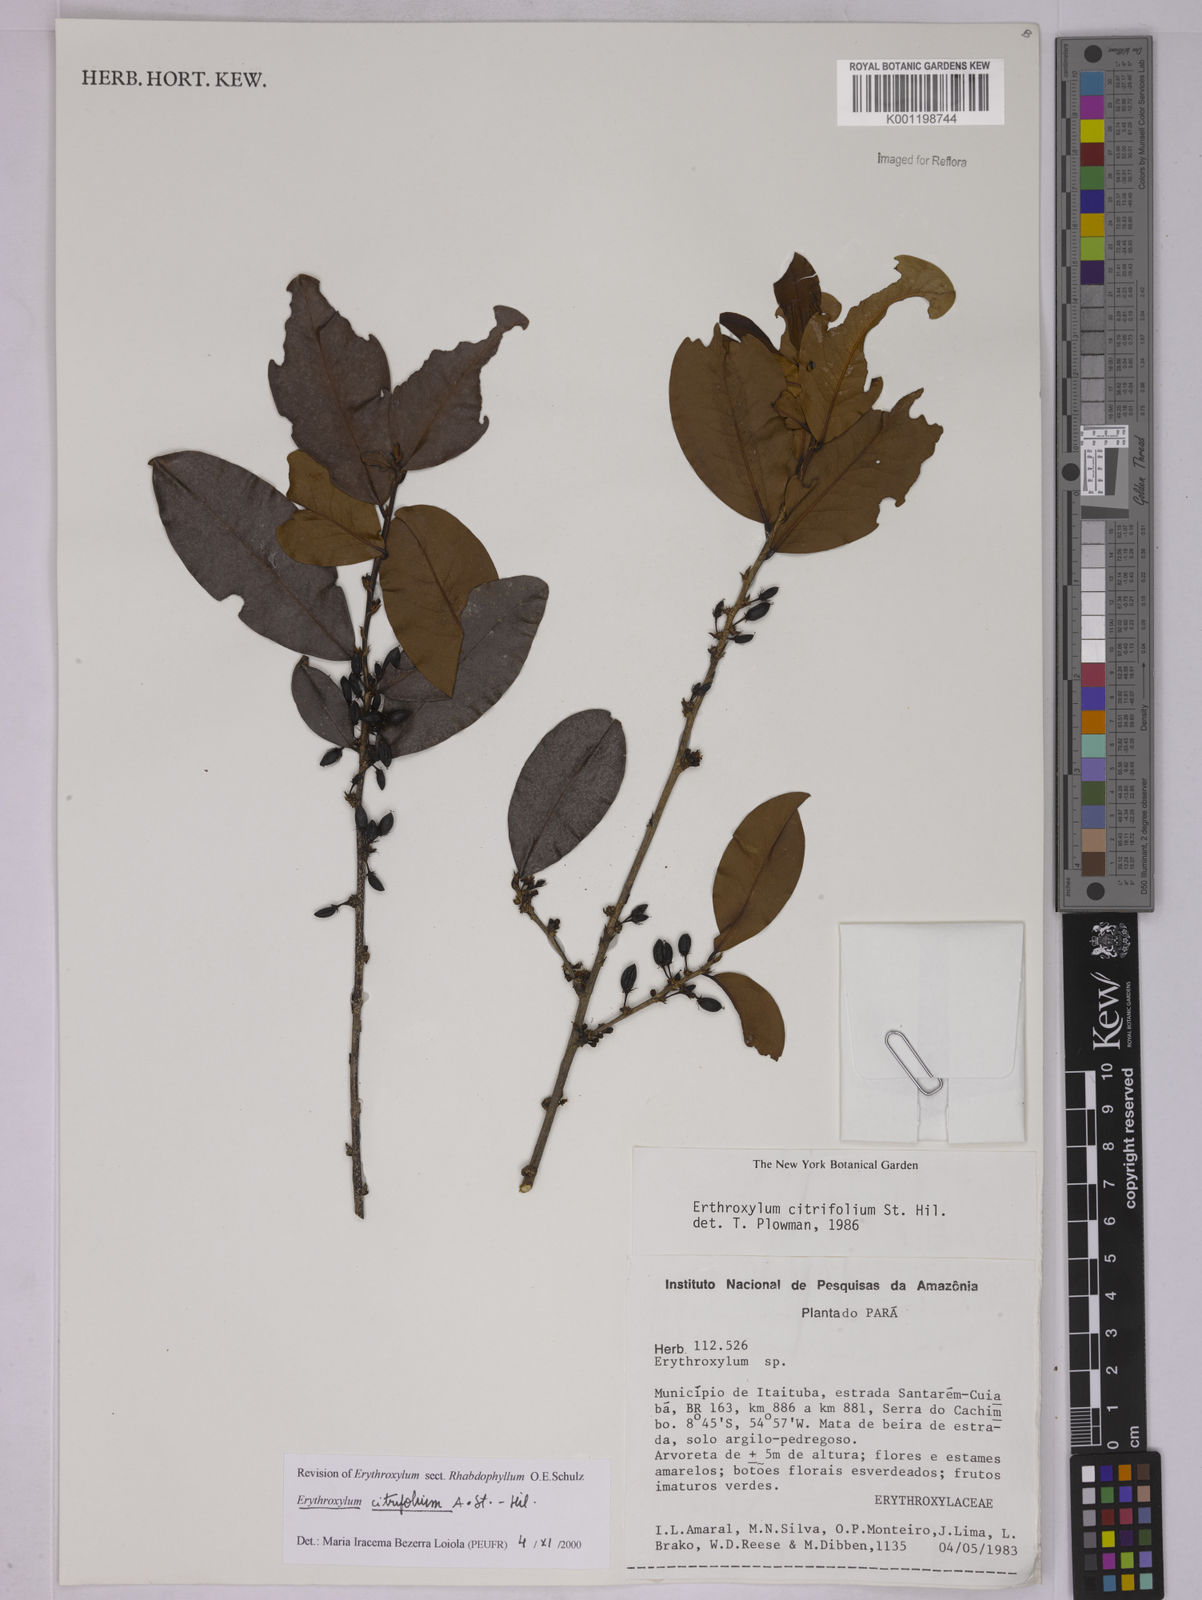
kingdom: Plantae
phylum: Tracheophyta
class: Magnoliopsida
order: Malpighiales
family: Erythroxylaceae
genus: Erythroxylum
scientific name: Erythroxylum citrifolium
